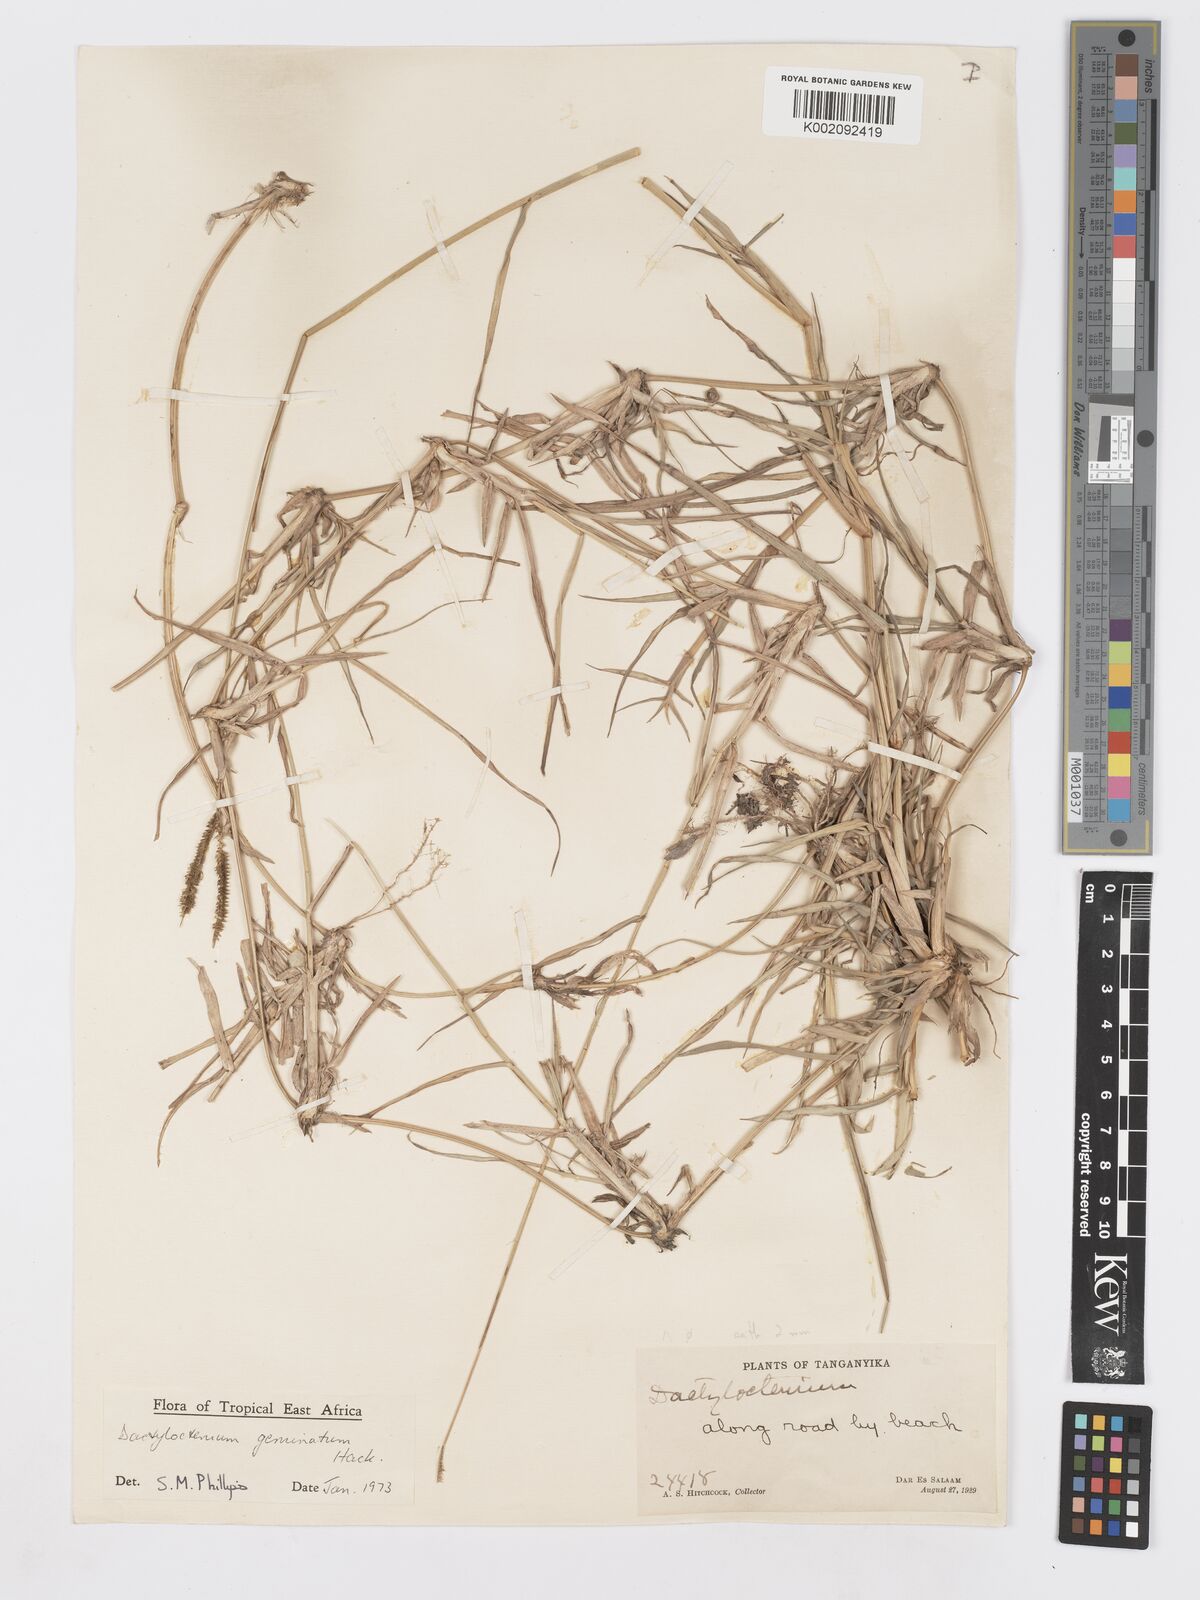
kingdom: Plantae
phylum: Tracheophyta
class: Liliopsida
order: Poales
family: Poaceae
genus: Dactyloctenium
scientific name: Dactyloctenium geminatum
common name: Crowsfoot grass
